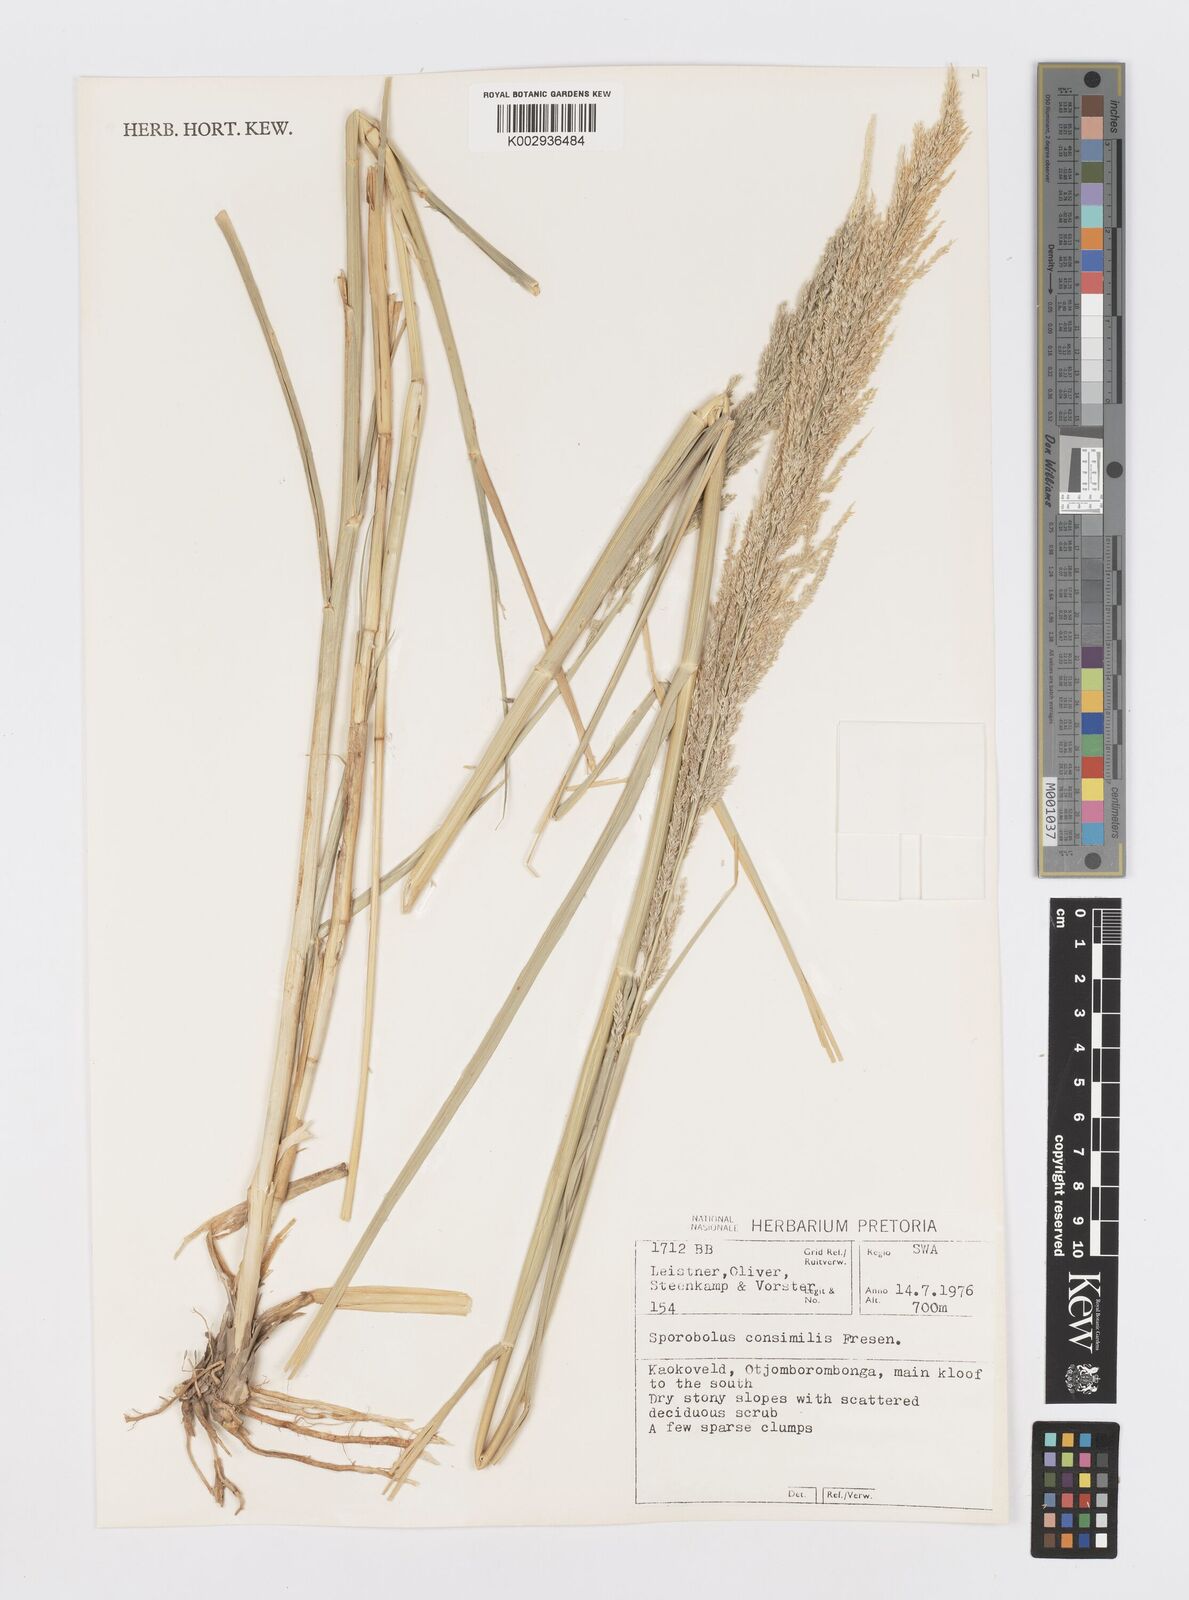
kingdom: Plantae
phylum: Tracheophyta
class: Liliopsida
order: Poales
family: Poaceae
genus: Sporobolus
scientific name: Sporobolus consimilis
